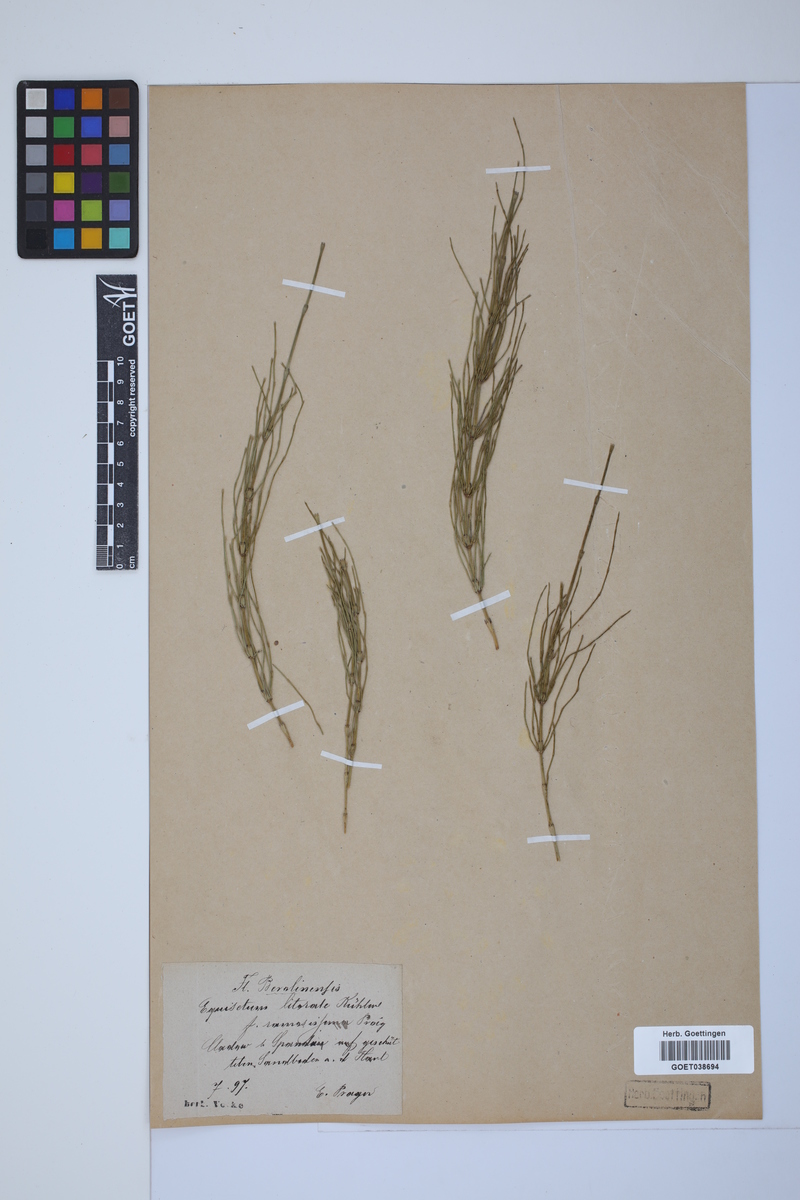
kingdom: Plantae
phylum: Tracheophyta
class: Polypodiopsida
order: Equisetales
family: Equisetaceae
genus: Equisetum
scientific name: Equisetum litorale
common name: Littoral horsetail
